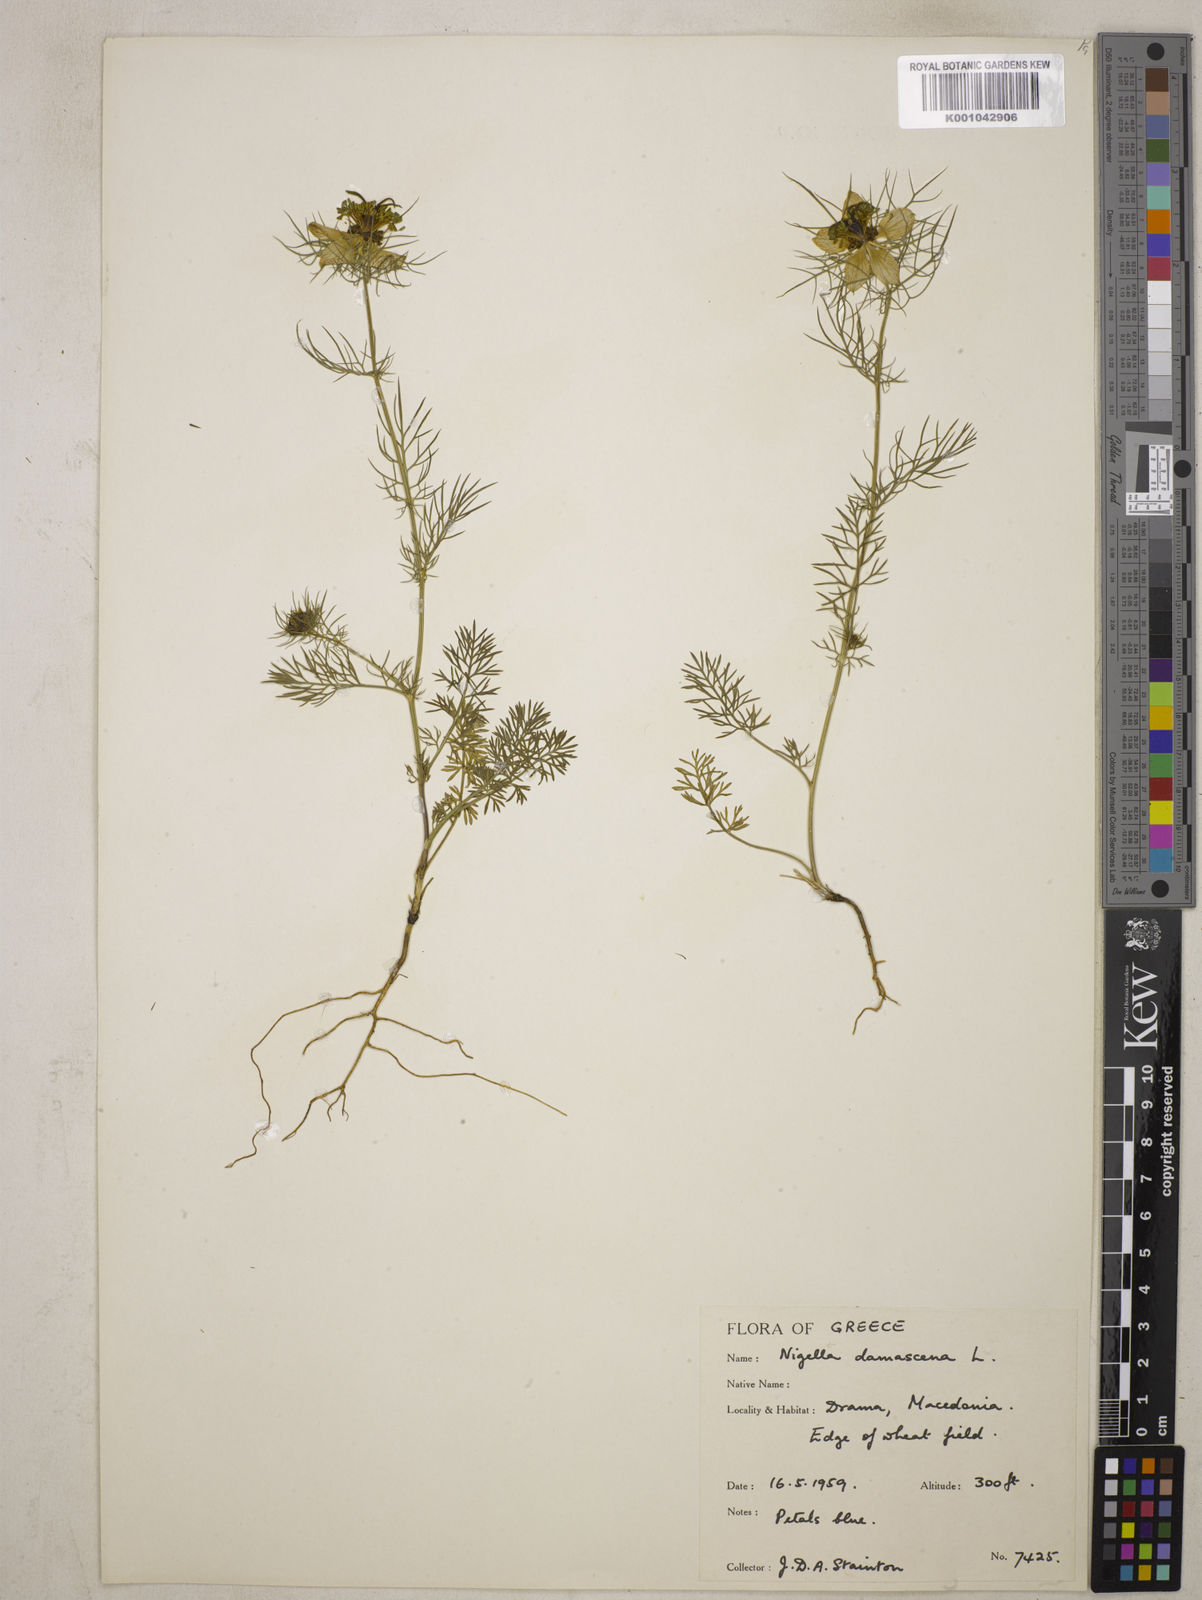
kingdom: Plantae
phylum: Tracheophyta
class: Magnoliopsida
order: Ranunculales
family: Ranunculaceae
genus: Nigella
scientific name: Nigella damascena
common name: Love-in-a-mist
